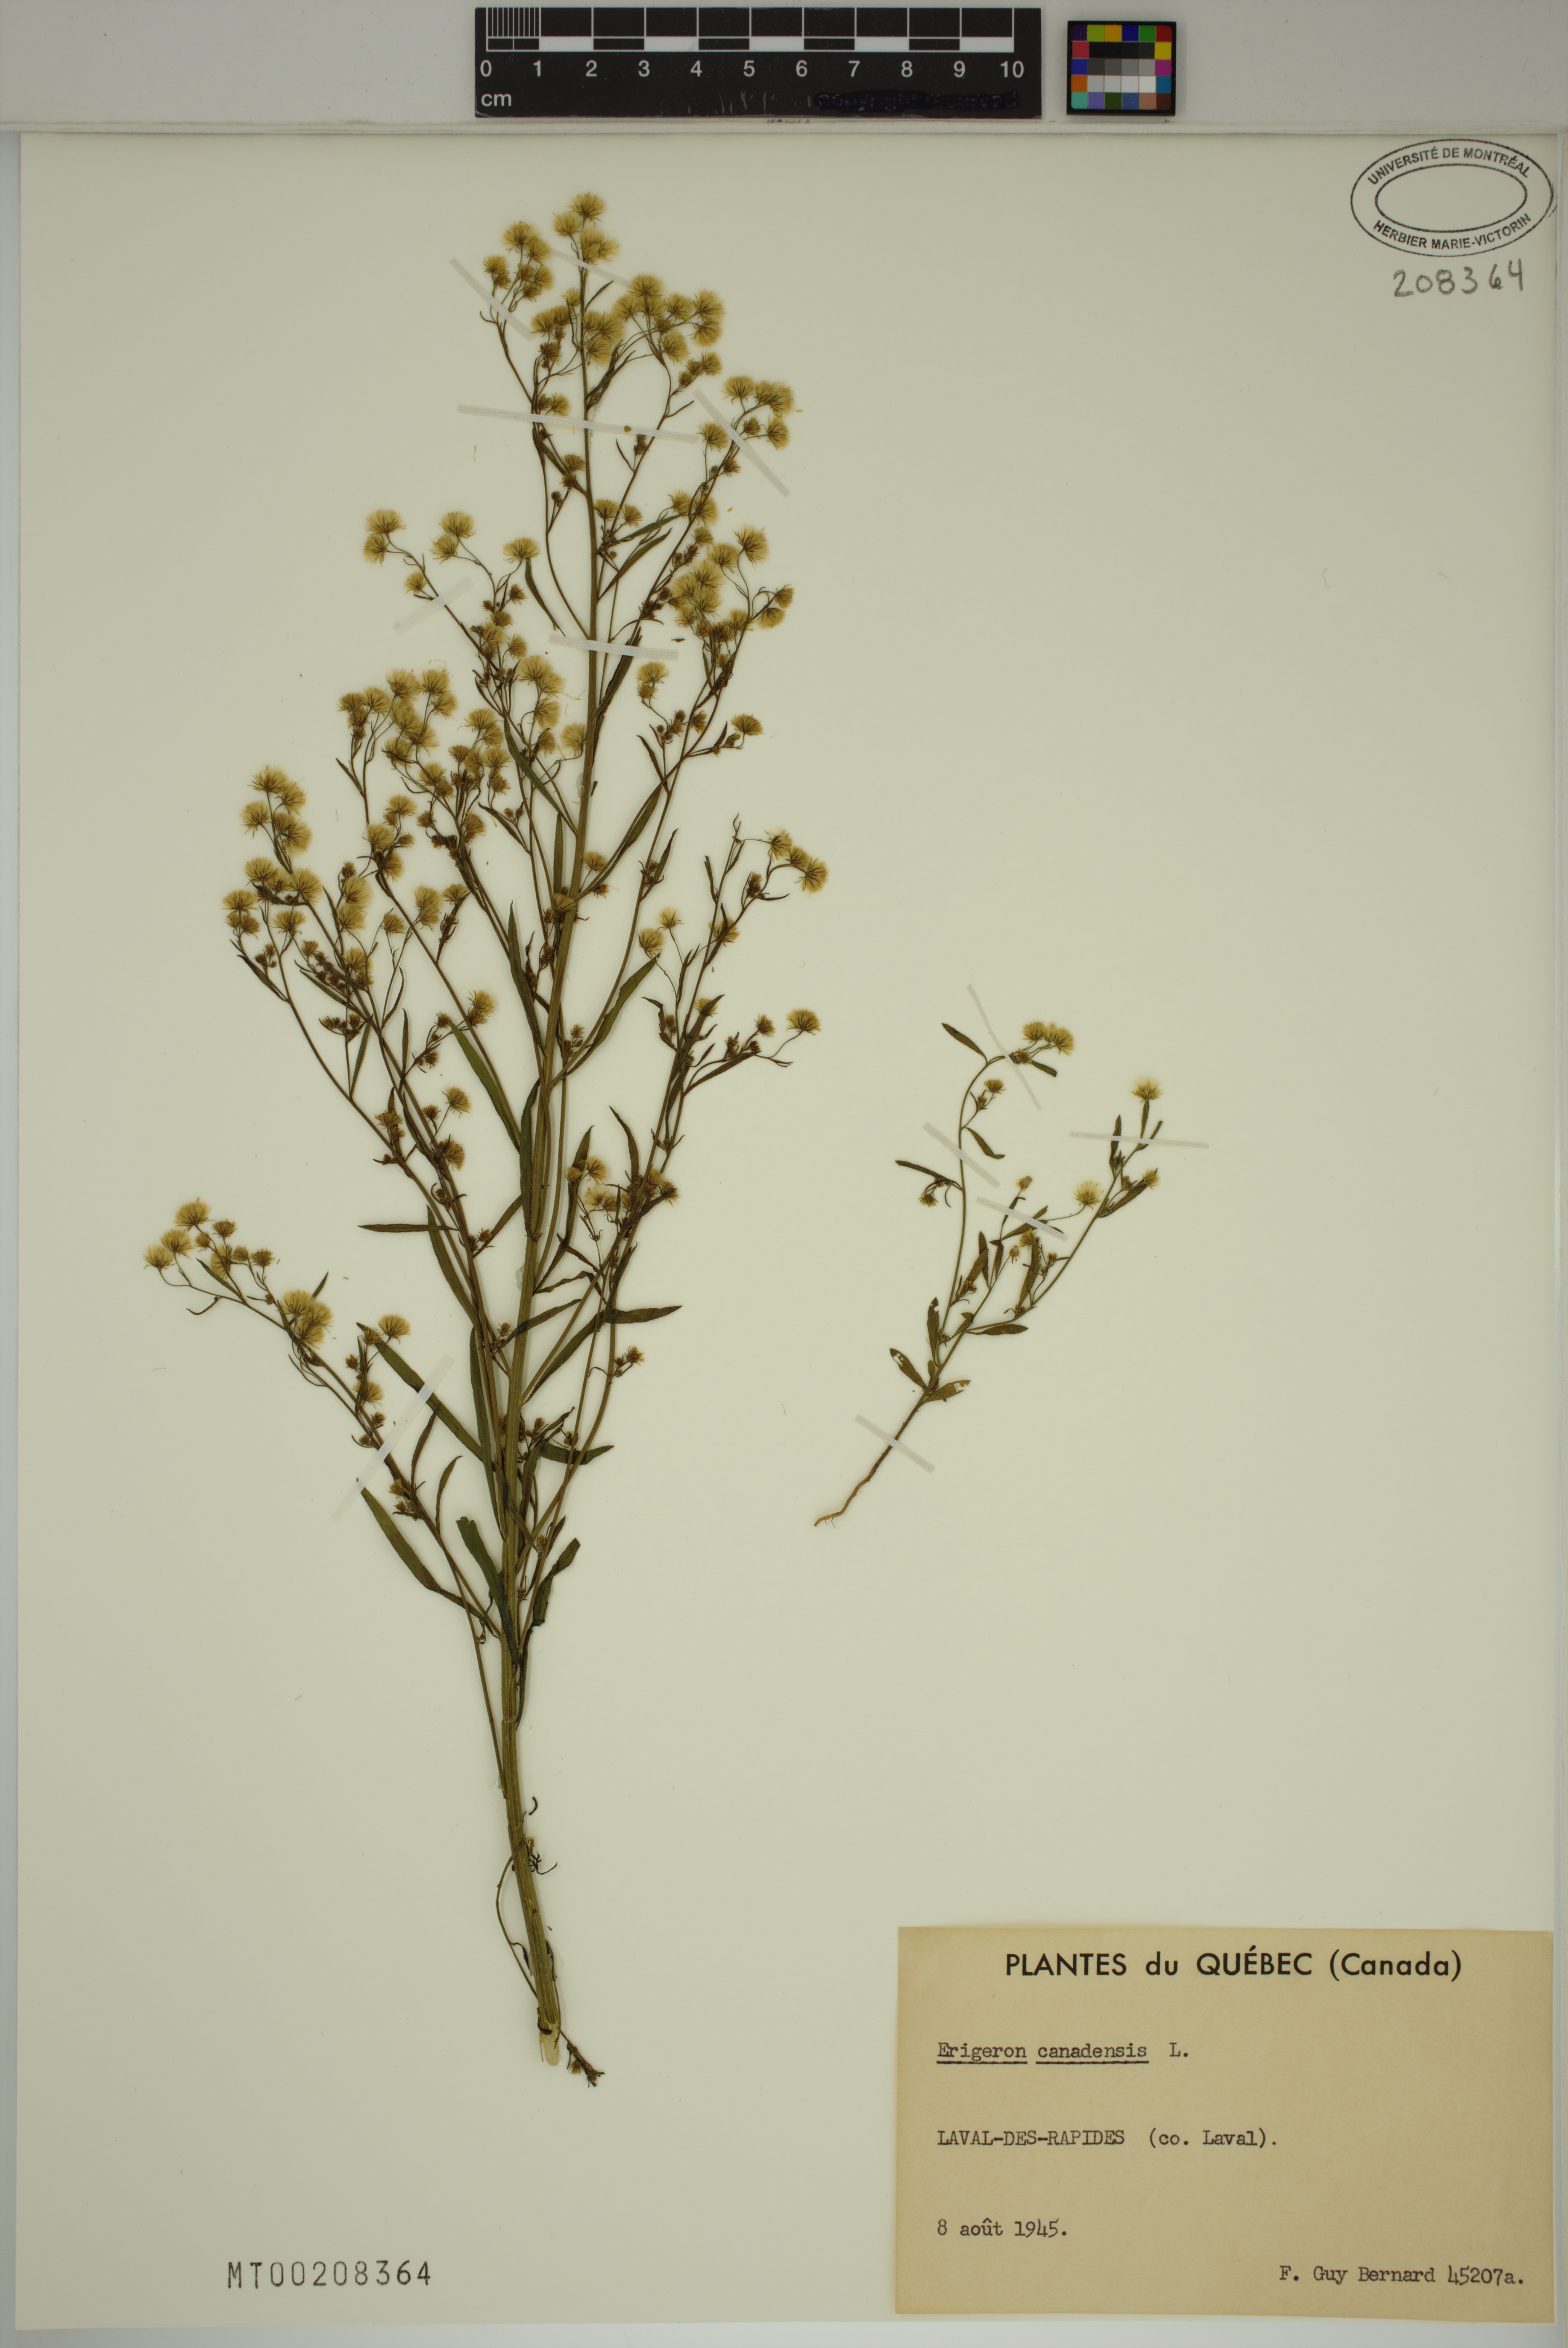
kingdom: Plantae
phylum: Tracheophyta
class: Magnoliopsida
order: Asterales
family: Asteraceae
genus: Erigeron
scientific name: Erigeron canadensis
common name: Canadian fleabane
